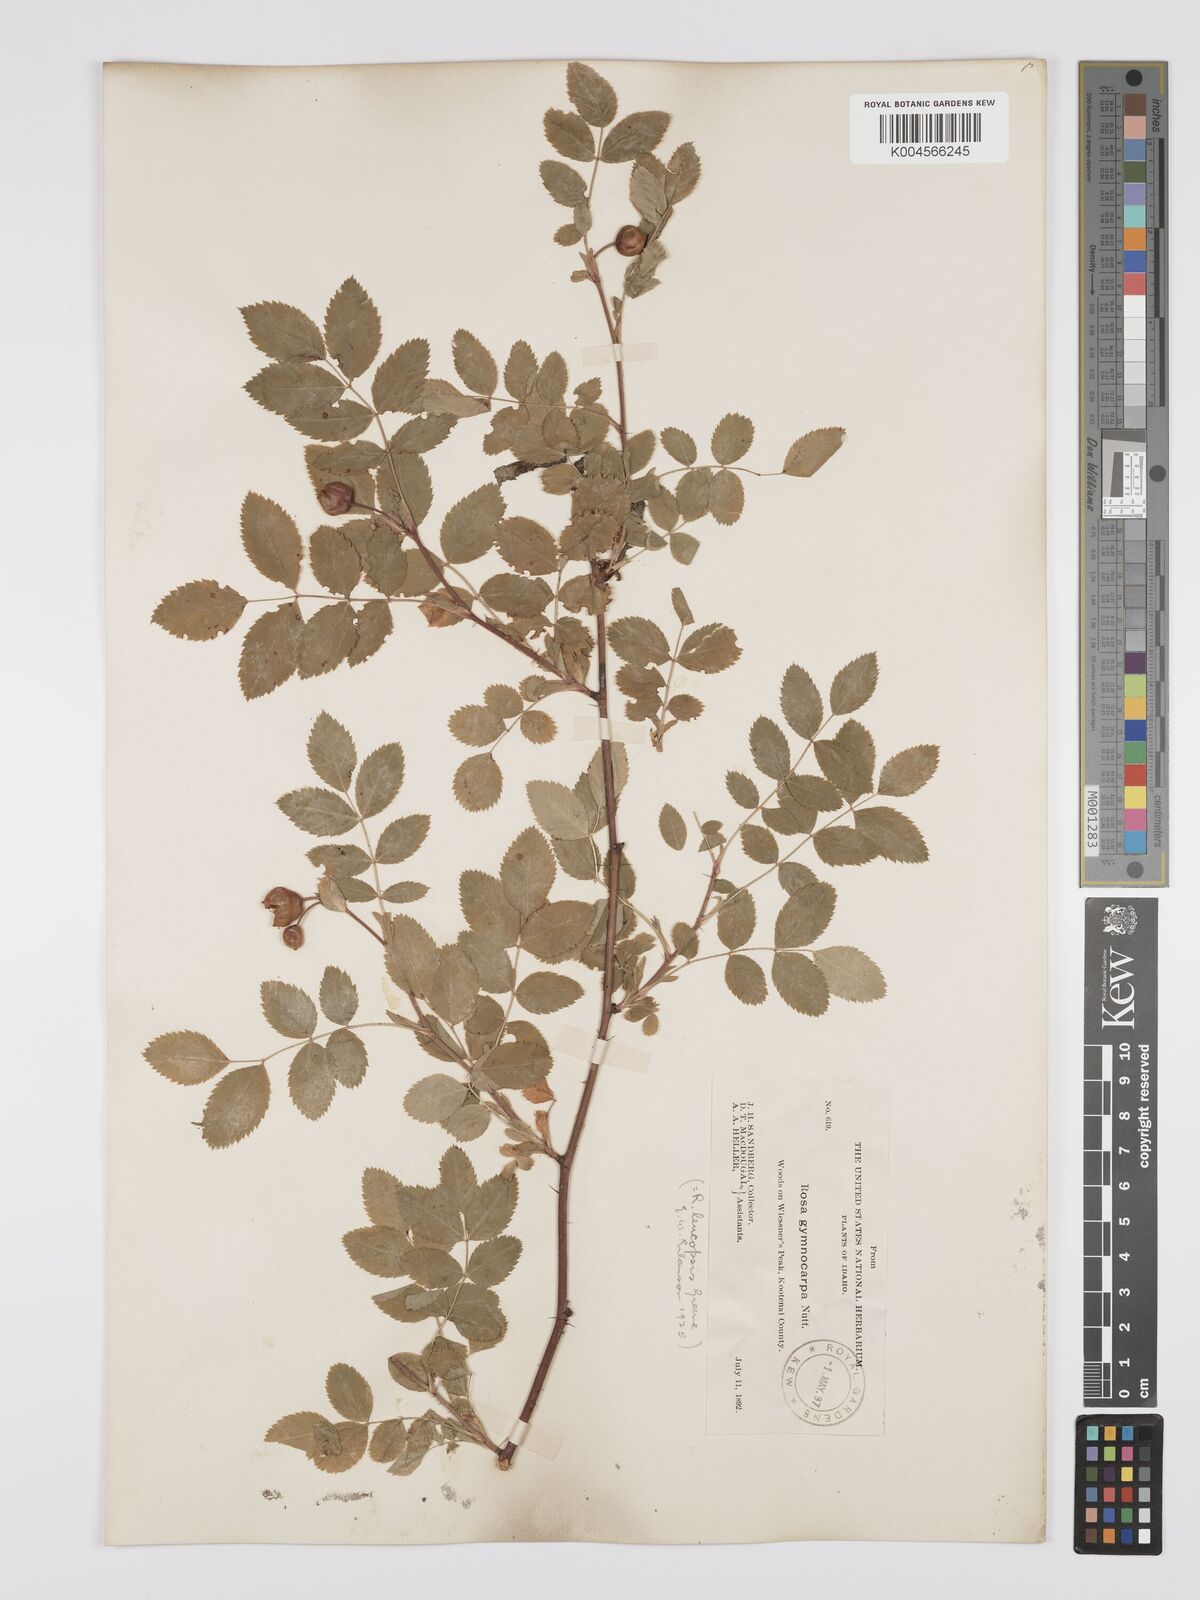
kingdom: Plantae
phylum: Tracheophyta
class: Magnoliopsida
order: Rosales
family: Rosaceae
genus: Rosa
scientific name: Rosa gymnocarpa
